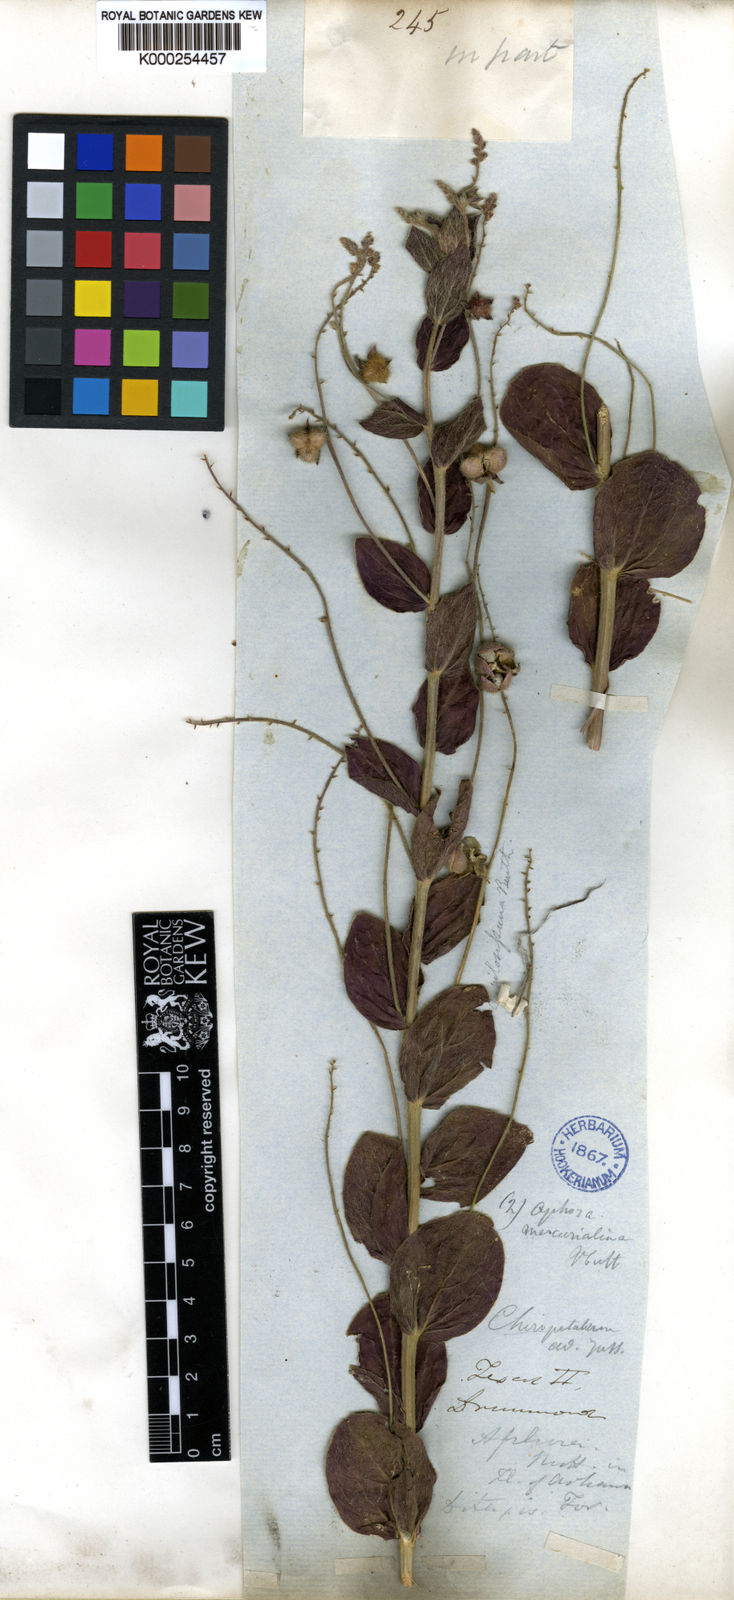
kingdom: Plantae
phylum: Tracheophyta
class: Magnoliopsida
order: Malpighiales
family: Euphorbiaceae
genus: Ditaxis
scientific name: Ditaxis mercurialina
